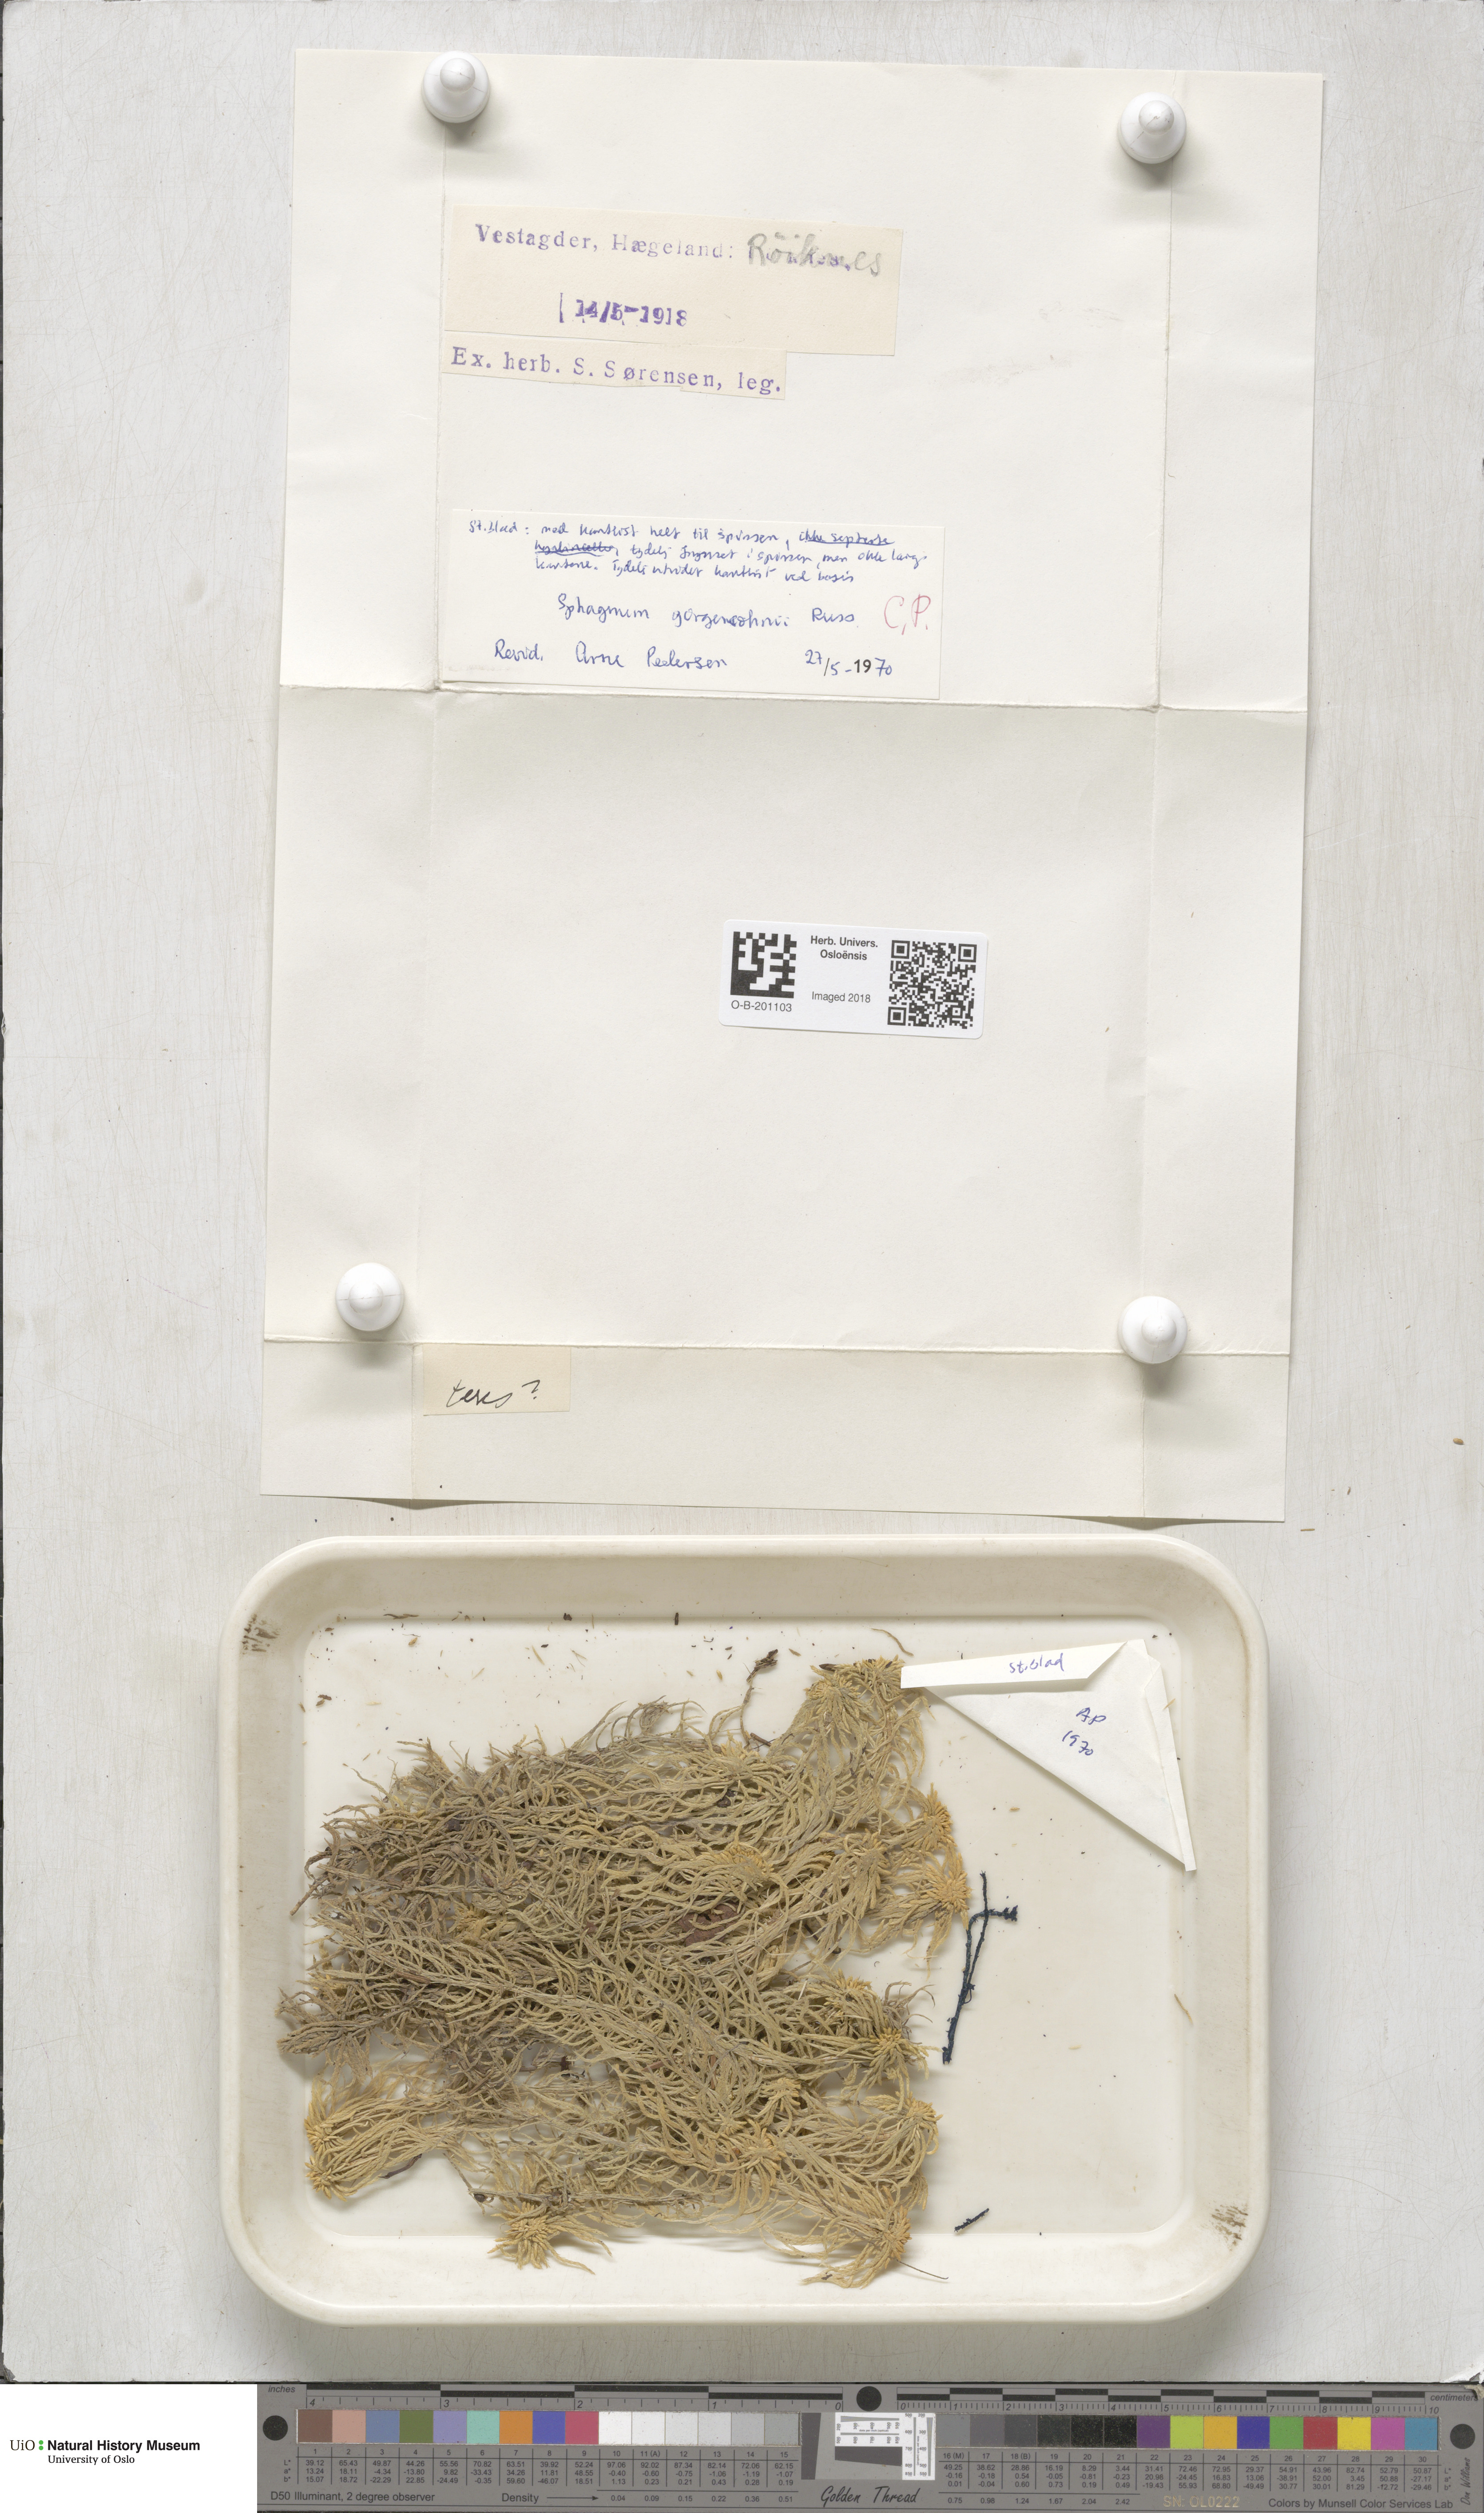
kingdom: Plantae
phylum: Bryophyta
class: Sphagnopsida
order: Sphagnales
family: Sphagnaceae
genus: Sphagnum
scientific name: Sphagnum girgensohnii
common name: Girgensohn's peat moss
